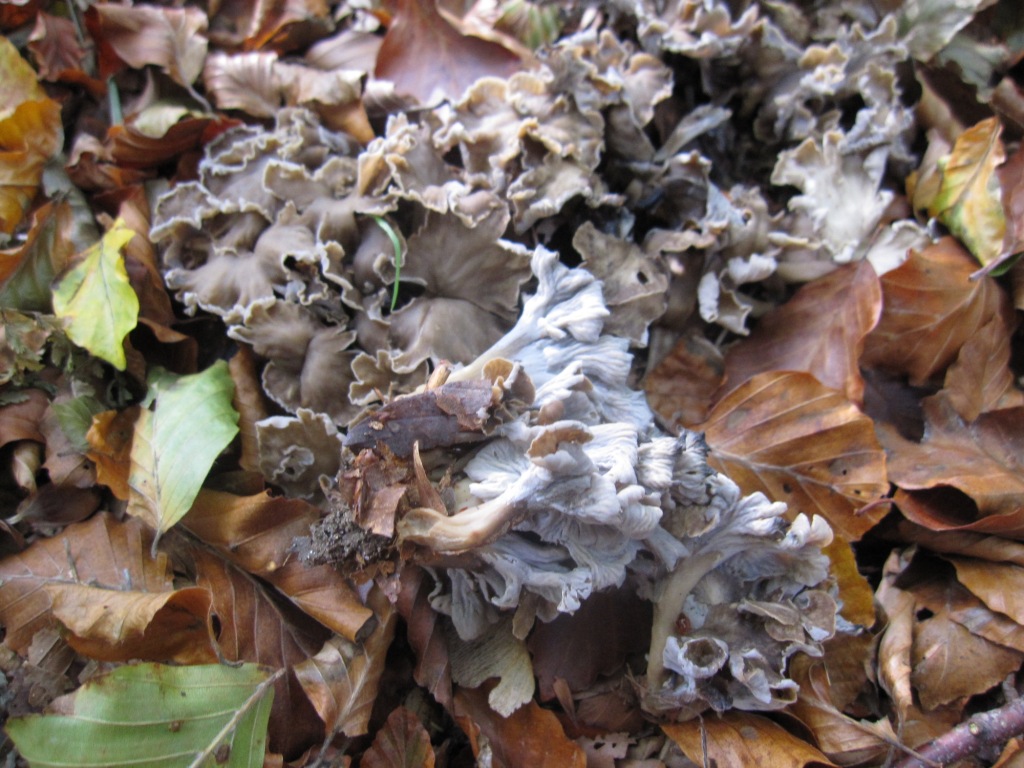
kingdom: Fungi
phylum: Basidiomycota
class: Agaricomycetes
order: Cantharellales
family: Hydnaceae
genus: Craterellus
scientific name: Craterellus undulatus
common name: liden kantarel
